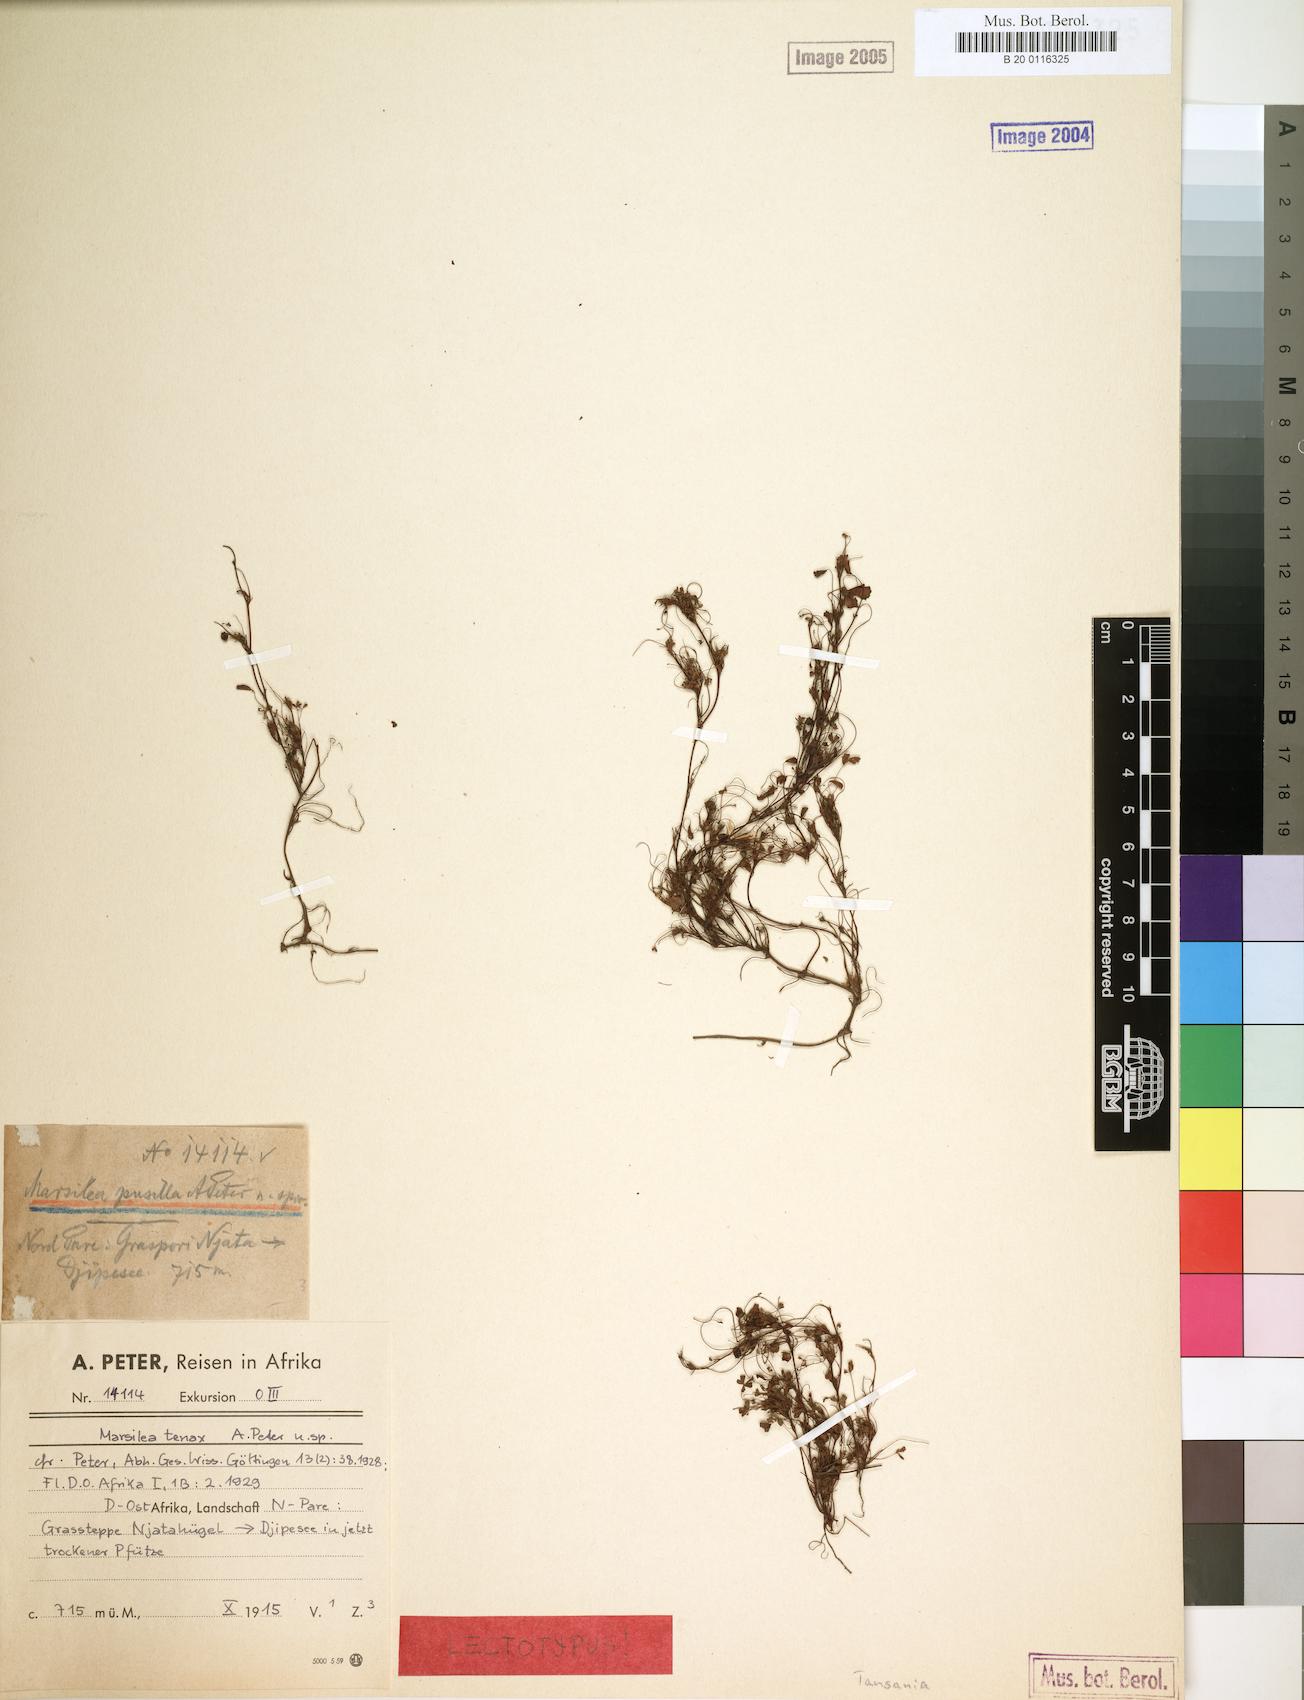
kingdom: Plantae
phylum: Tracheophyta
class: Polypodiopsida
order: Salviniales
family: Marsileaceae
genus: Marsilea
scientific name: Marsilea minuta
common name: Dwarf waterclover
